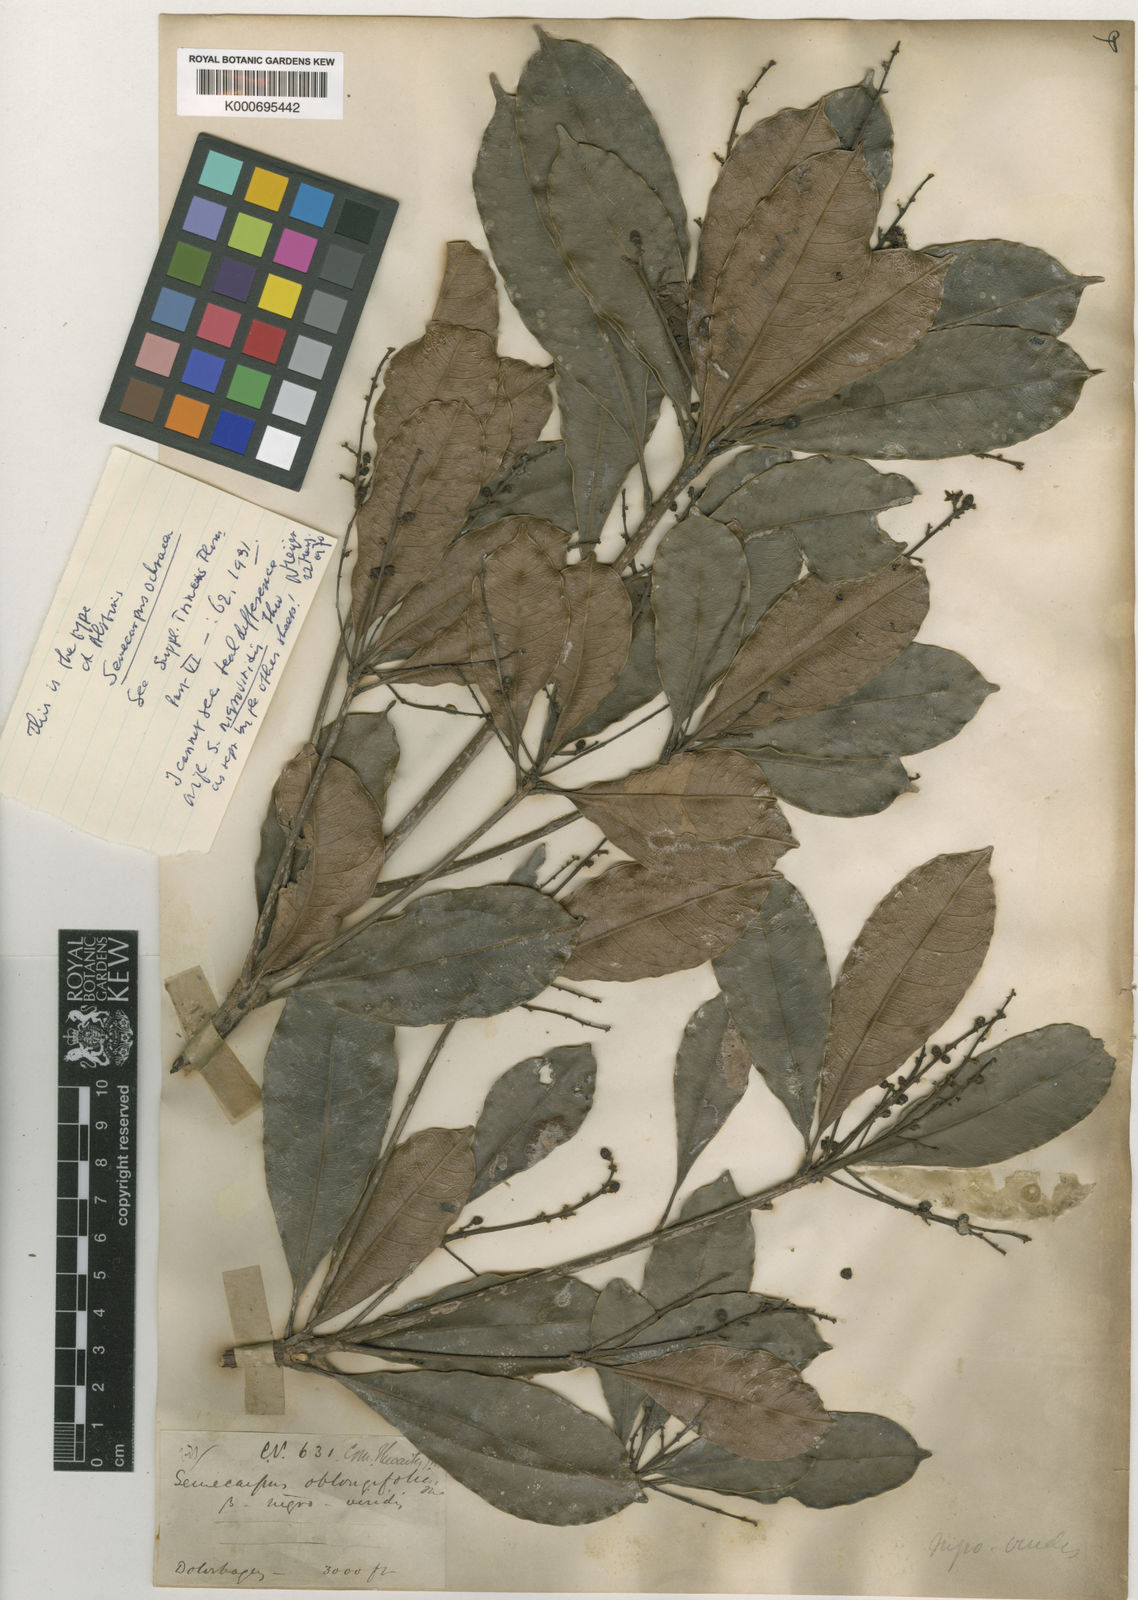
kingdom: Plantae
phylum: Tracheophyta
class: Magnoliopsida
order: Sapindales
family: Anacardiaceae
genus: Semecarpus
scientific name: Semecarpus nigroviridis
